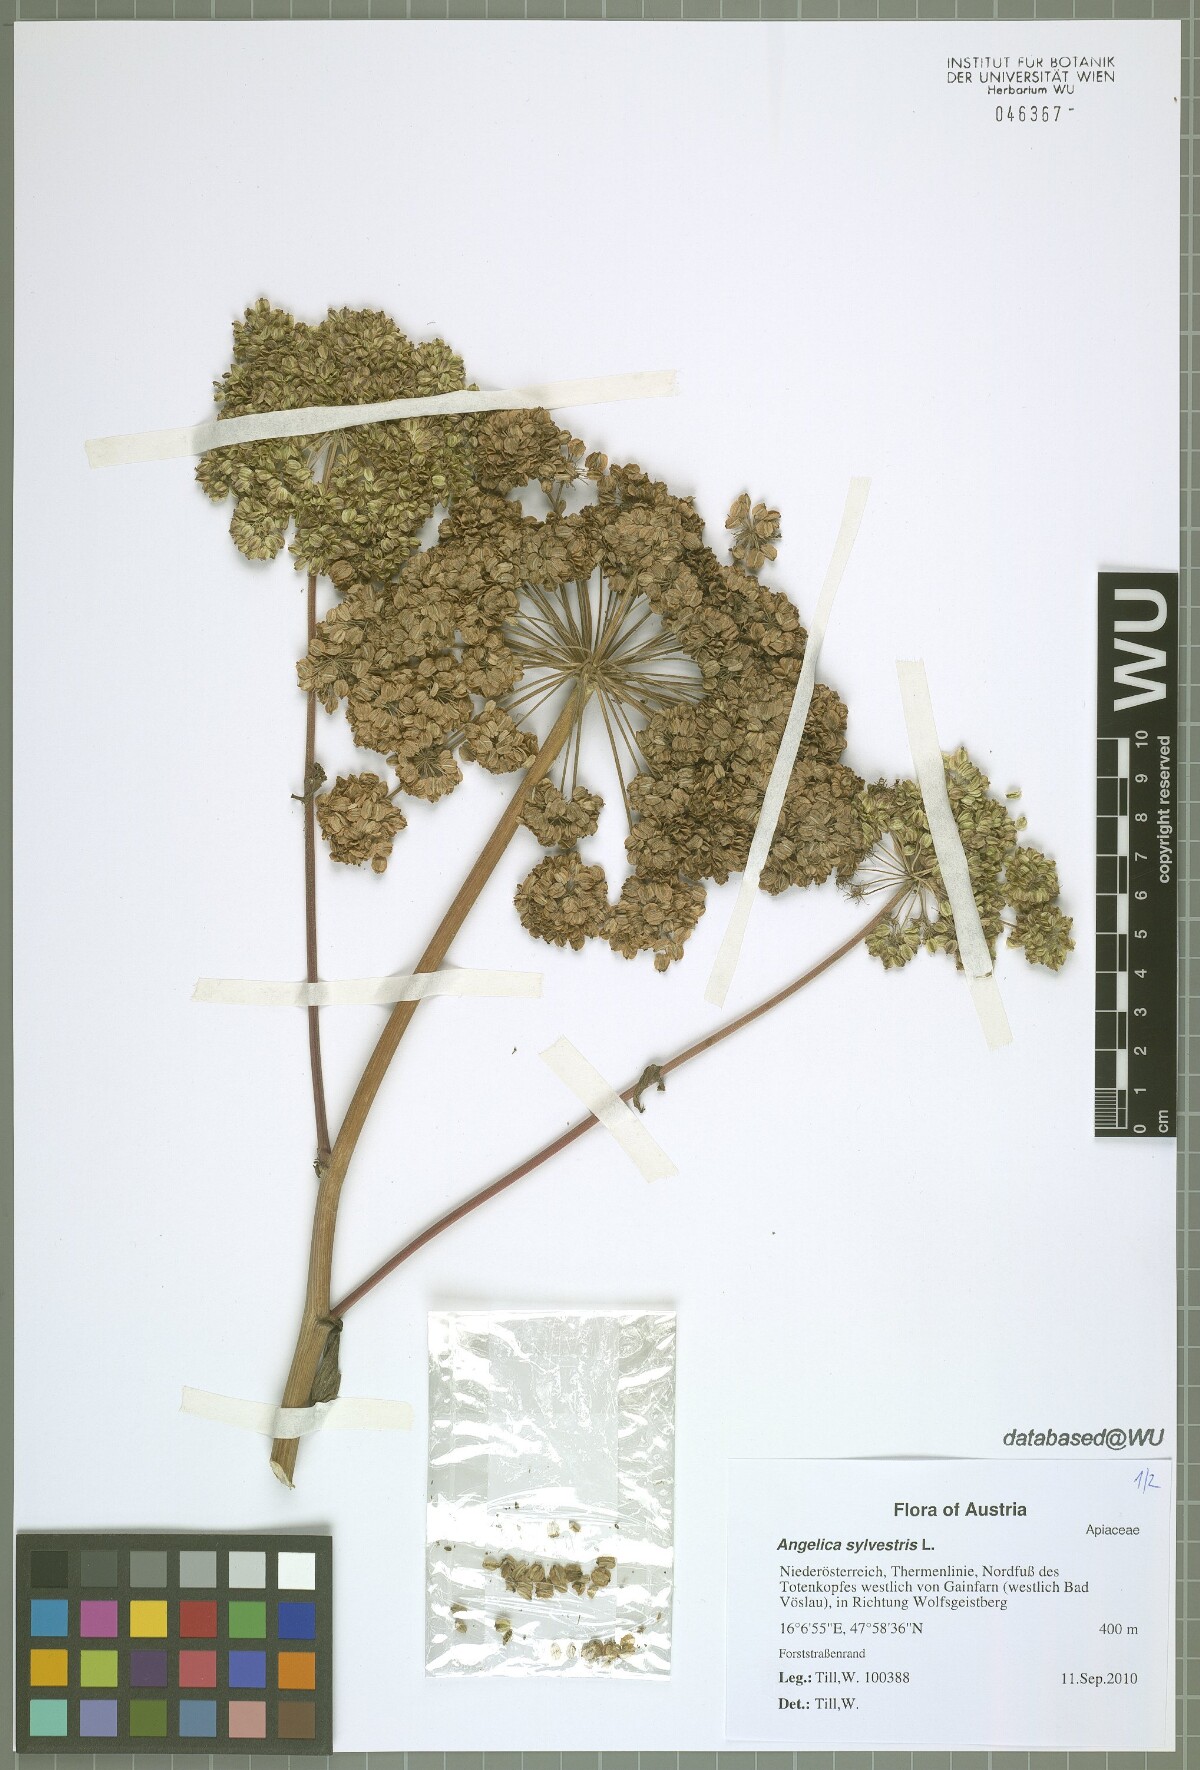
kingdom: Plantae
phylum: Tracheophyta
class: Magnoliopsida
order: Apiales
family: Apiaceae
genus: Angelica
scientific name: Angelica sylvestris
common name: Wild angelica
